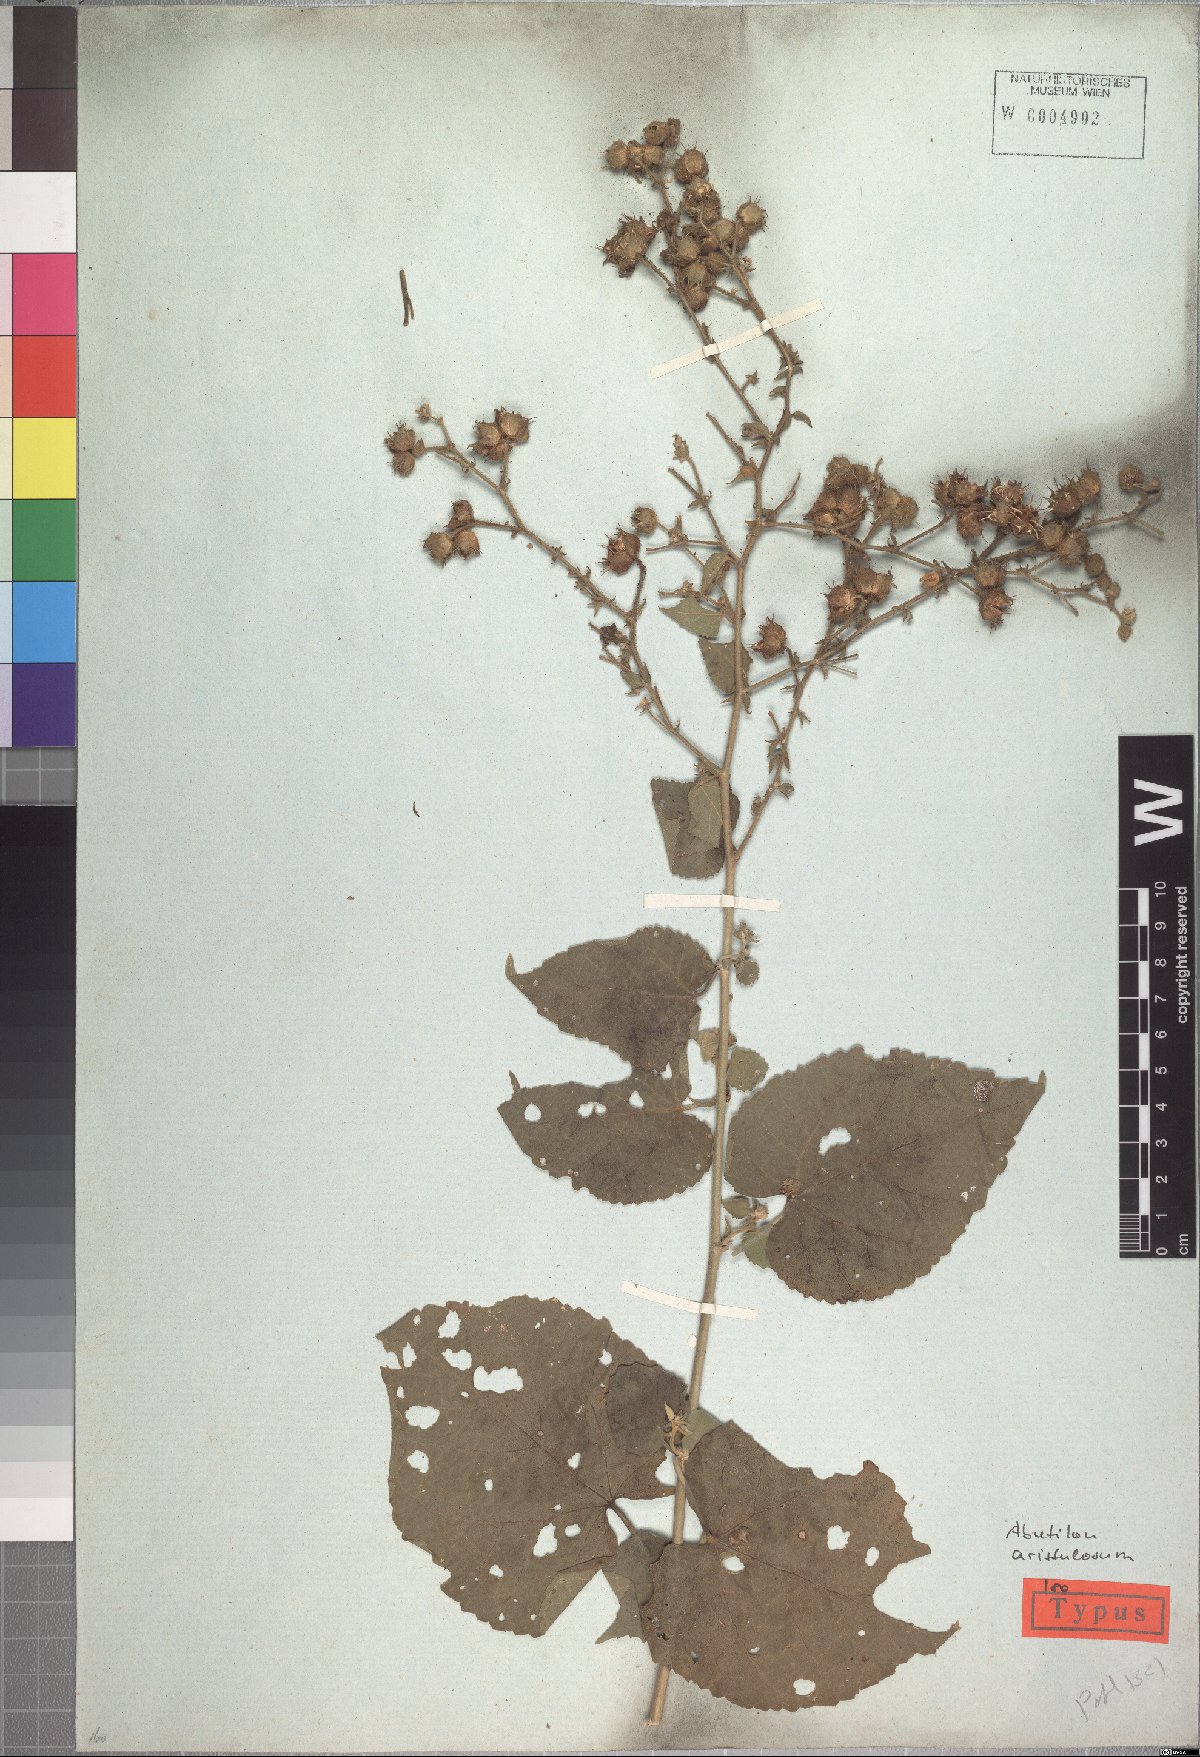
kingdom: Plantae
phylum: Tracheophyta
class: Magnoliopsida
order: Malvales
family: Malvaceae
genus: Pseudabutilon
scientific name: Pseudabutilon aristulosum
